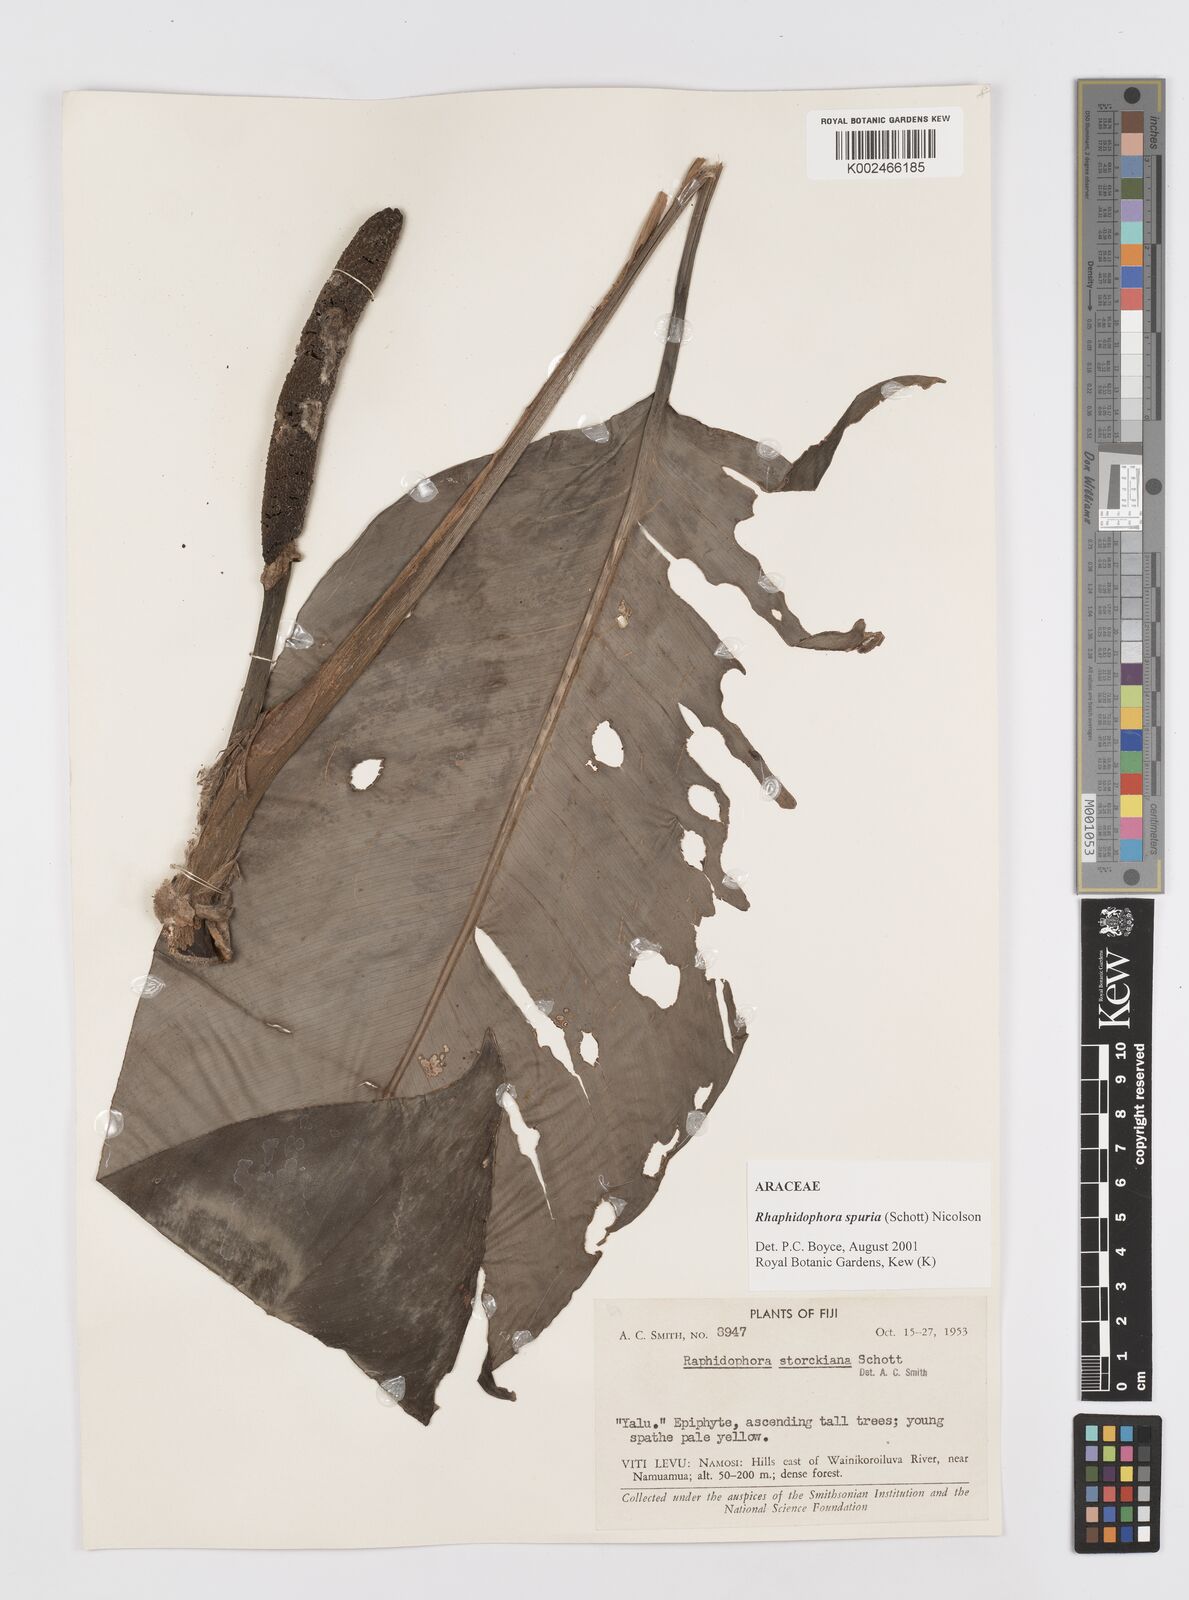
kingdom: Plantae
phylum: Tracheophyta
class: Liliopsida
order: Alismatales
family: Araceae
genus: Rhaphidophora
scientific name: Rhaphidophora spuria
